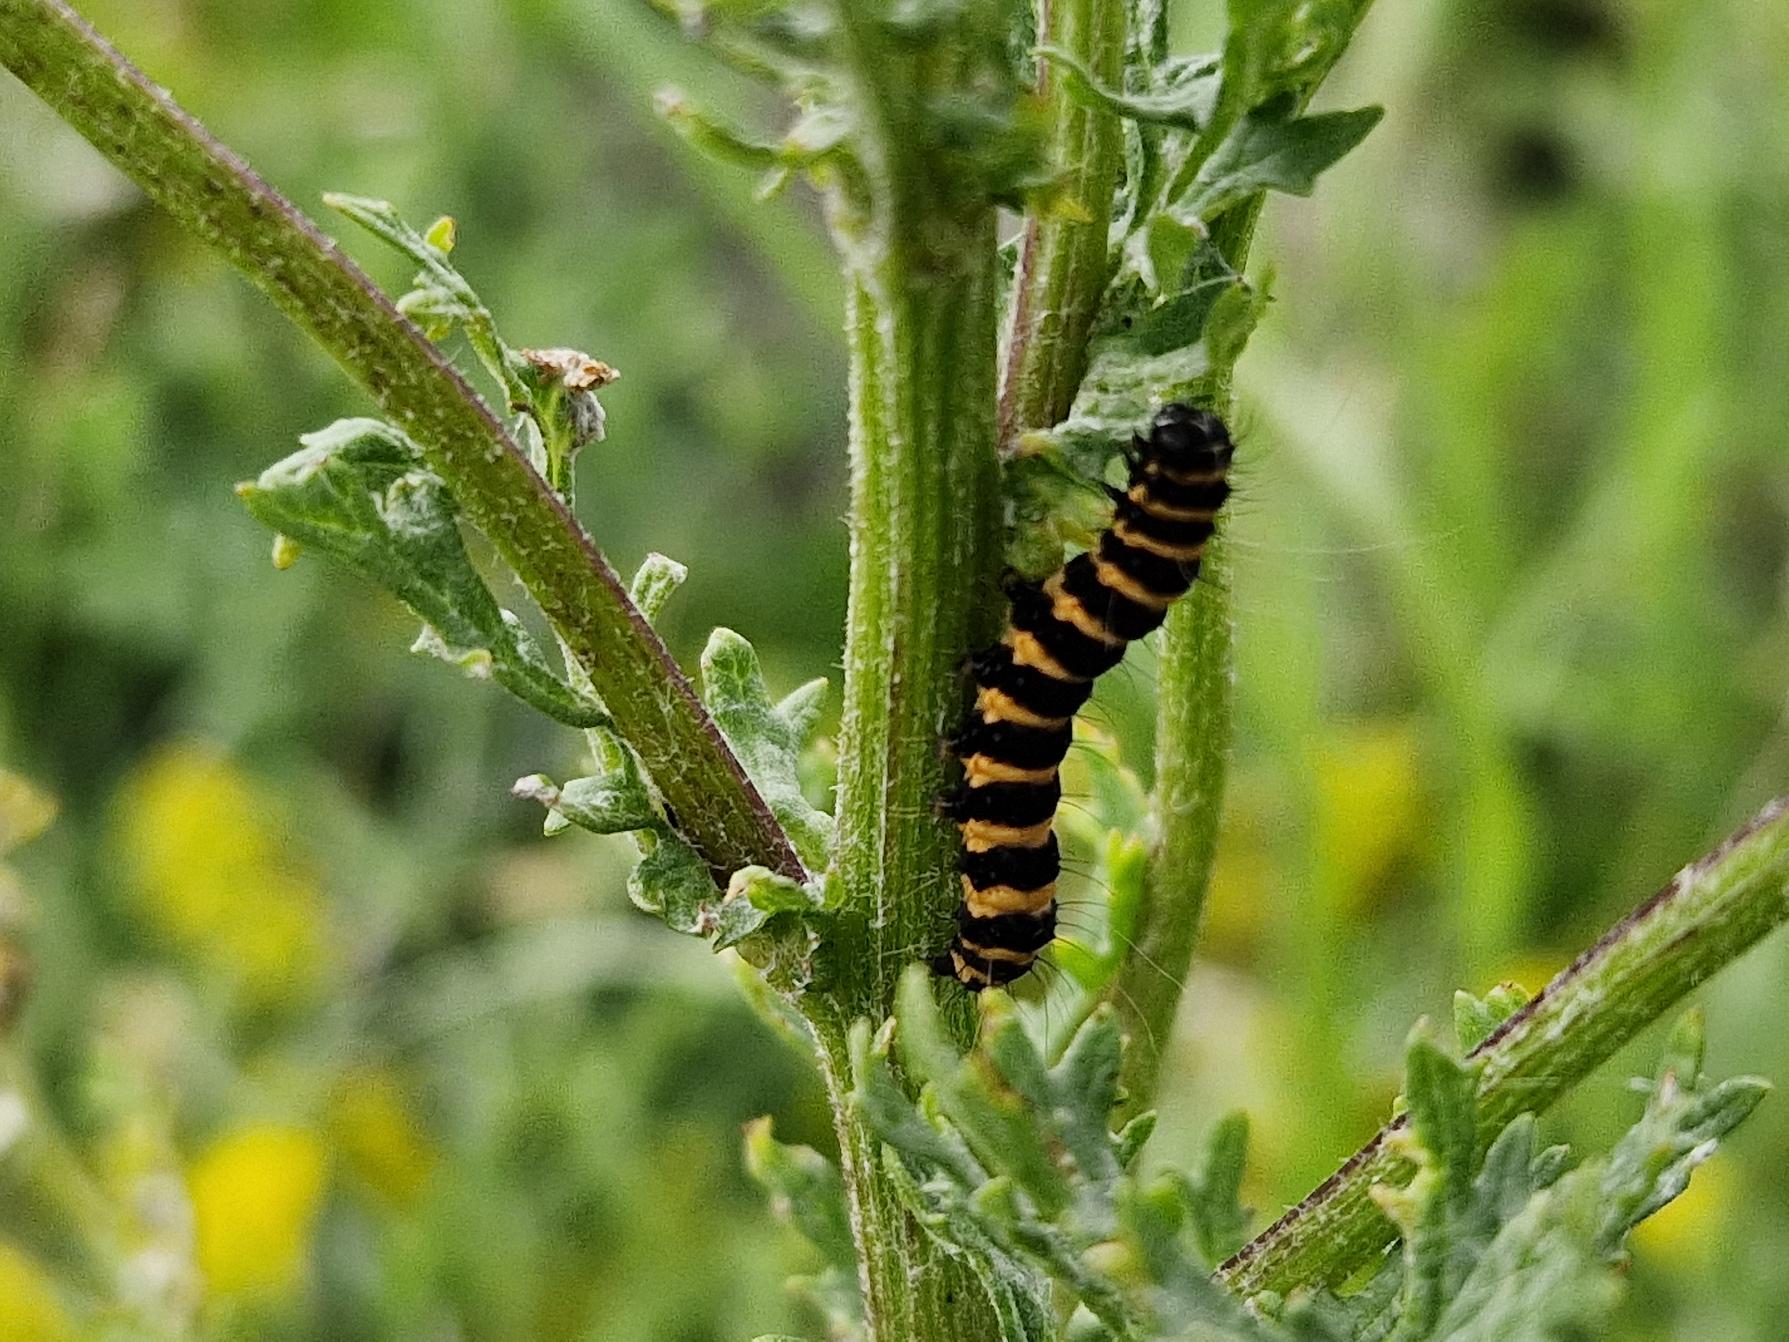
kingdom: Animalia
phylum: Arthropoda
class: Insecta
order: Lepidoptera
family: Erebidae
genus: Tyria
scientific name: Tyria jacobaeae
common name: Blodplet
